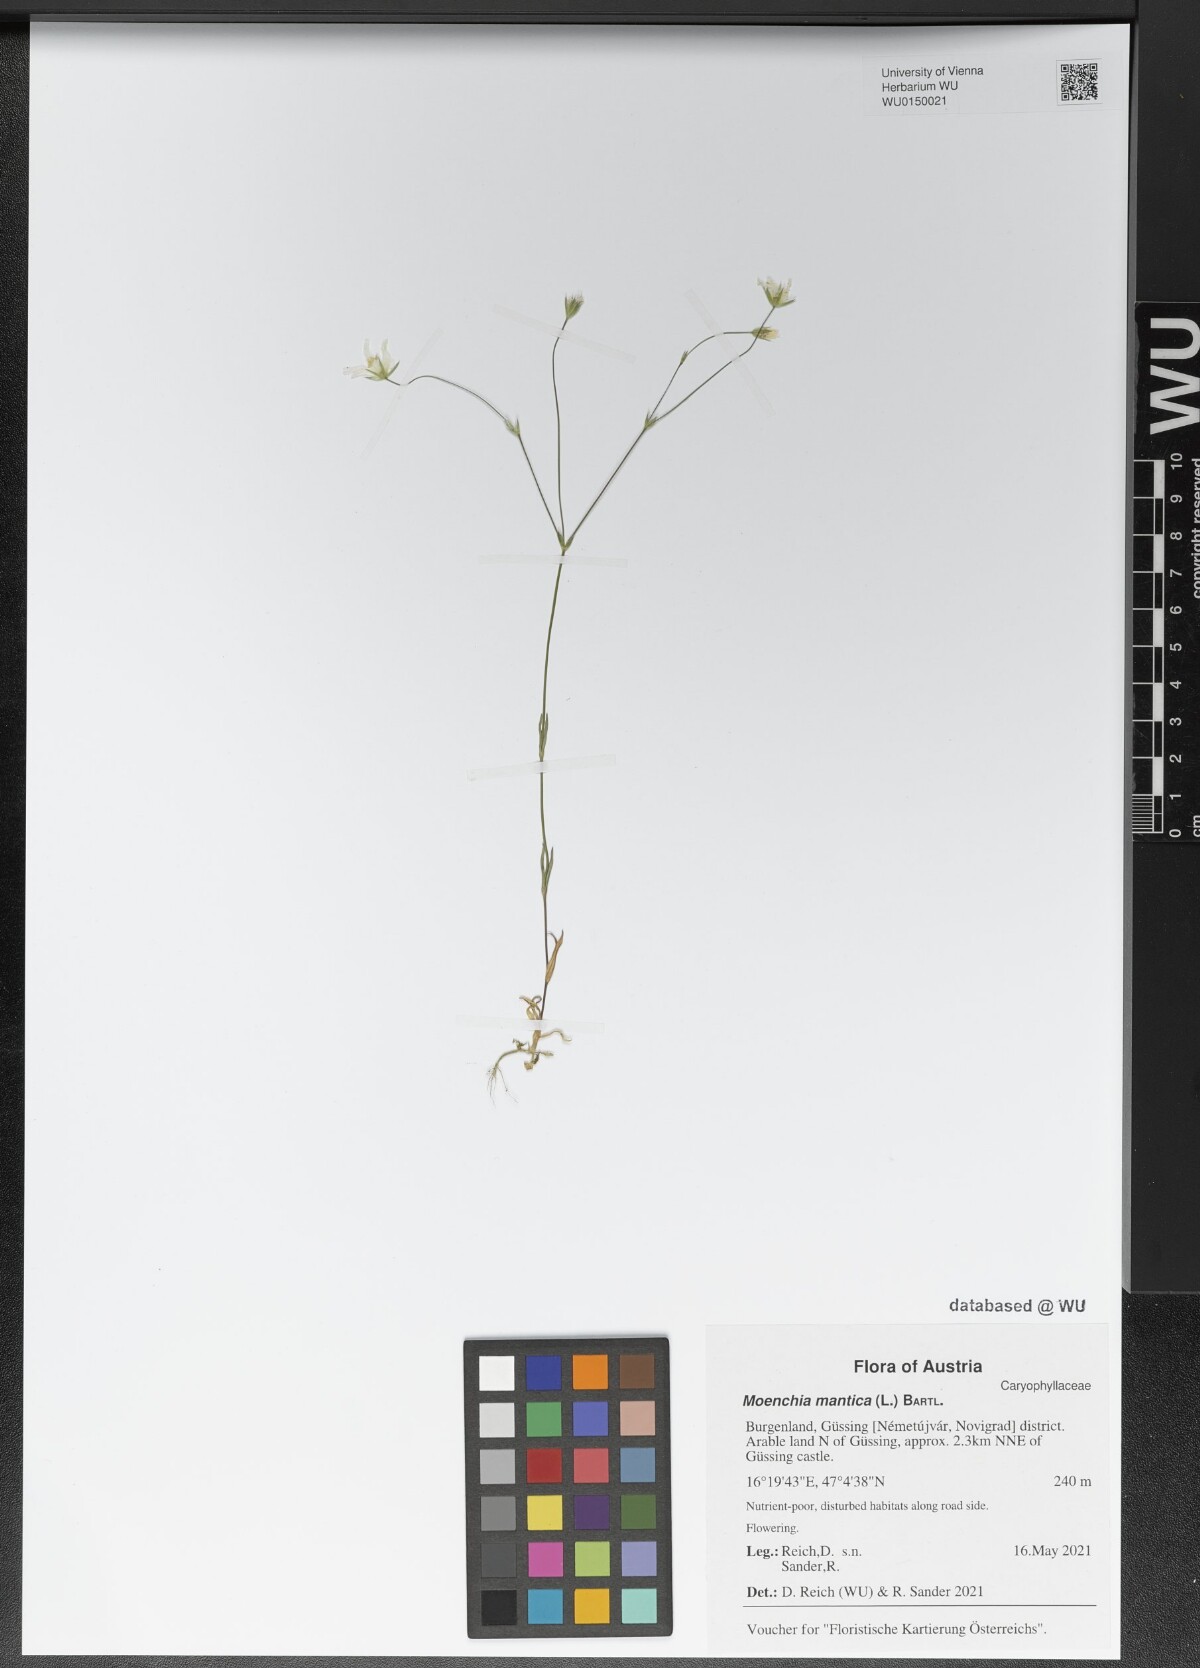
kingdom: Plantae
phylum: Tracheophyta
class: Magnoliopsida
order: Caryophyllales
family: Caryophyllaceae
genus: Moenchia
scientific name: Moenchia mantica
